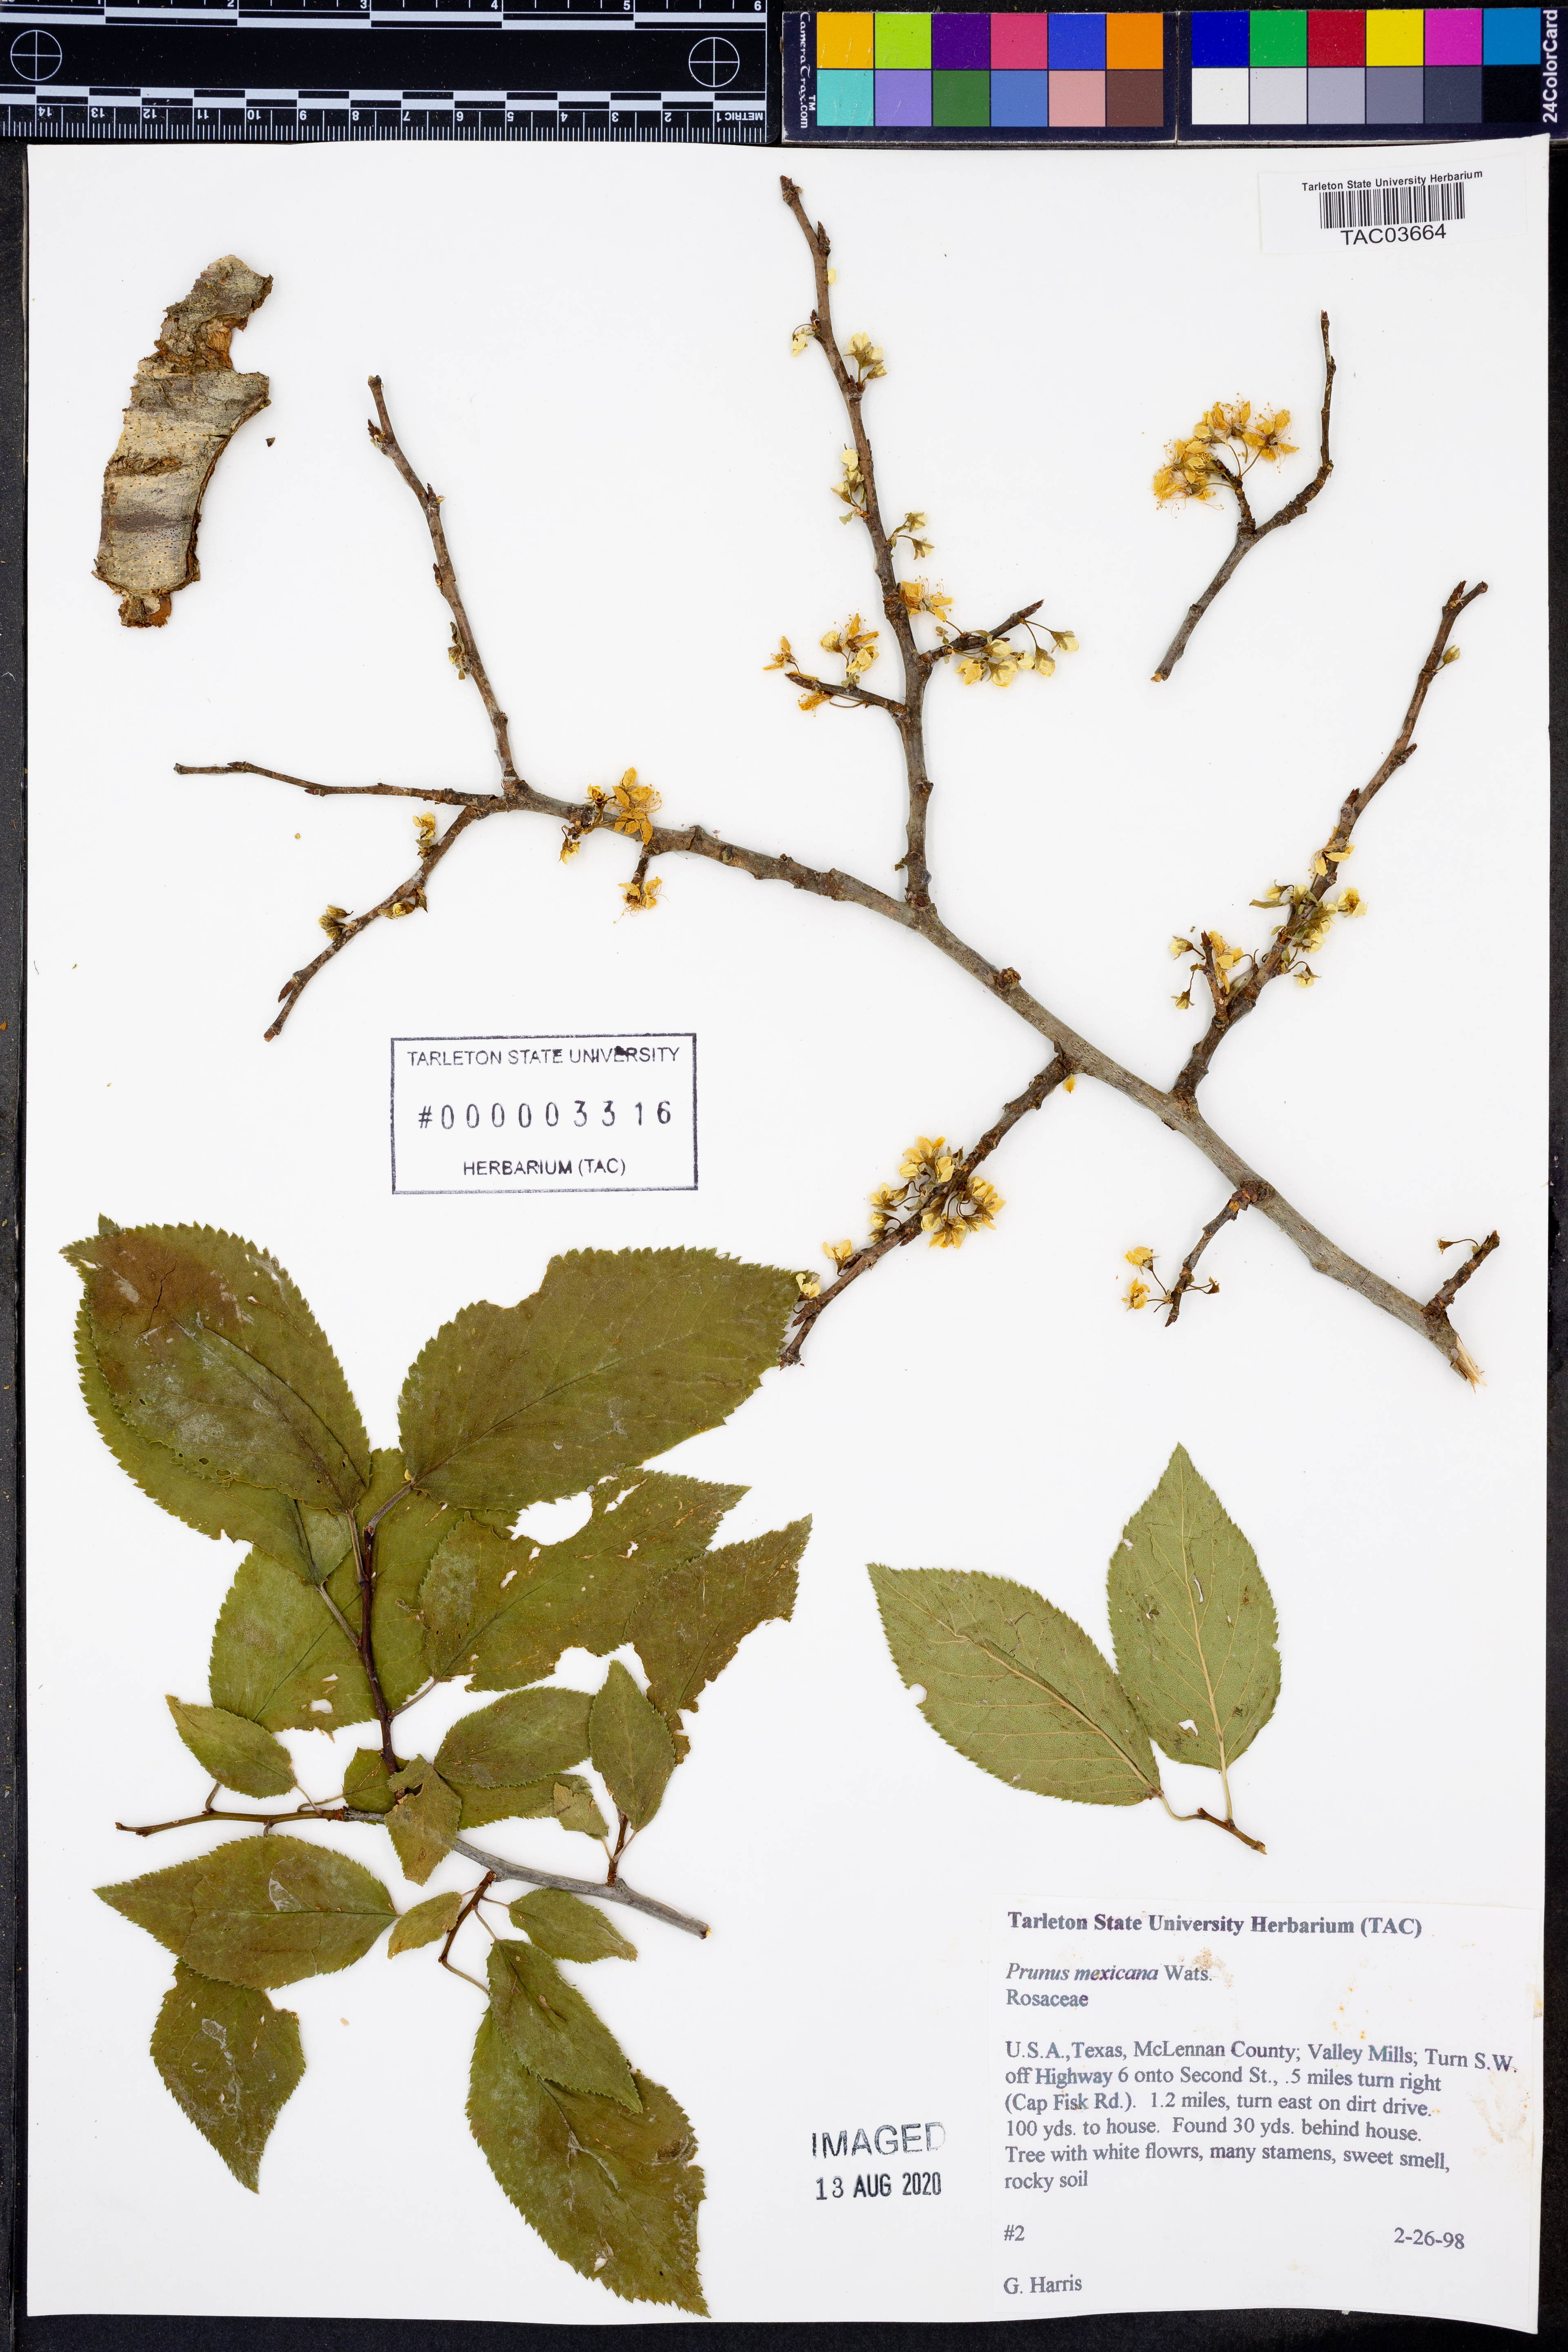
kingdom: Plantae
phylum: Tracheophyta
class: Magnoliopsida
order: Rosales
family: Rosaceae
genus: Prunus
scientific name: Prunus mexicana
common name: Mexican plum
